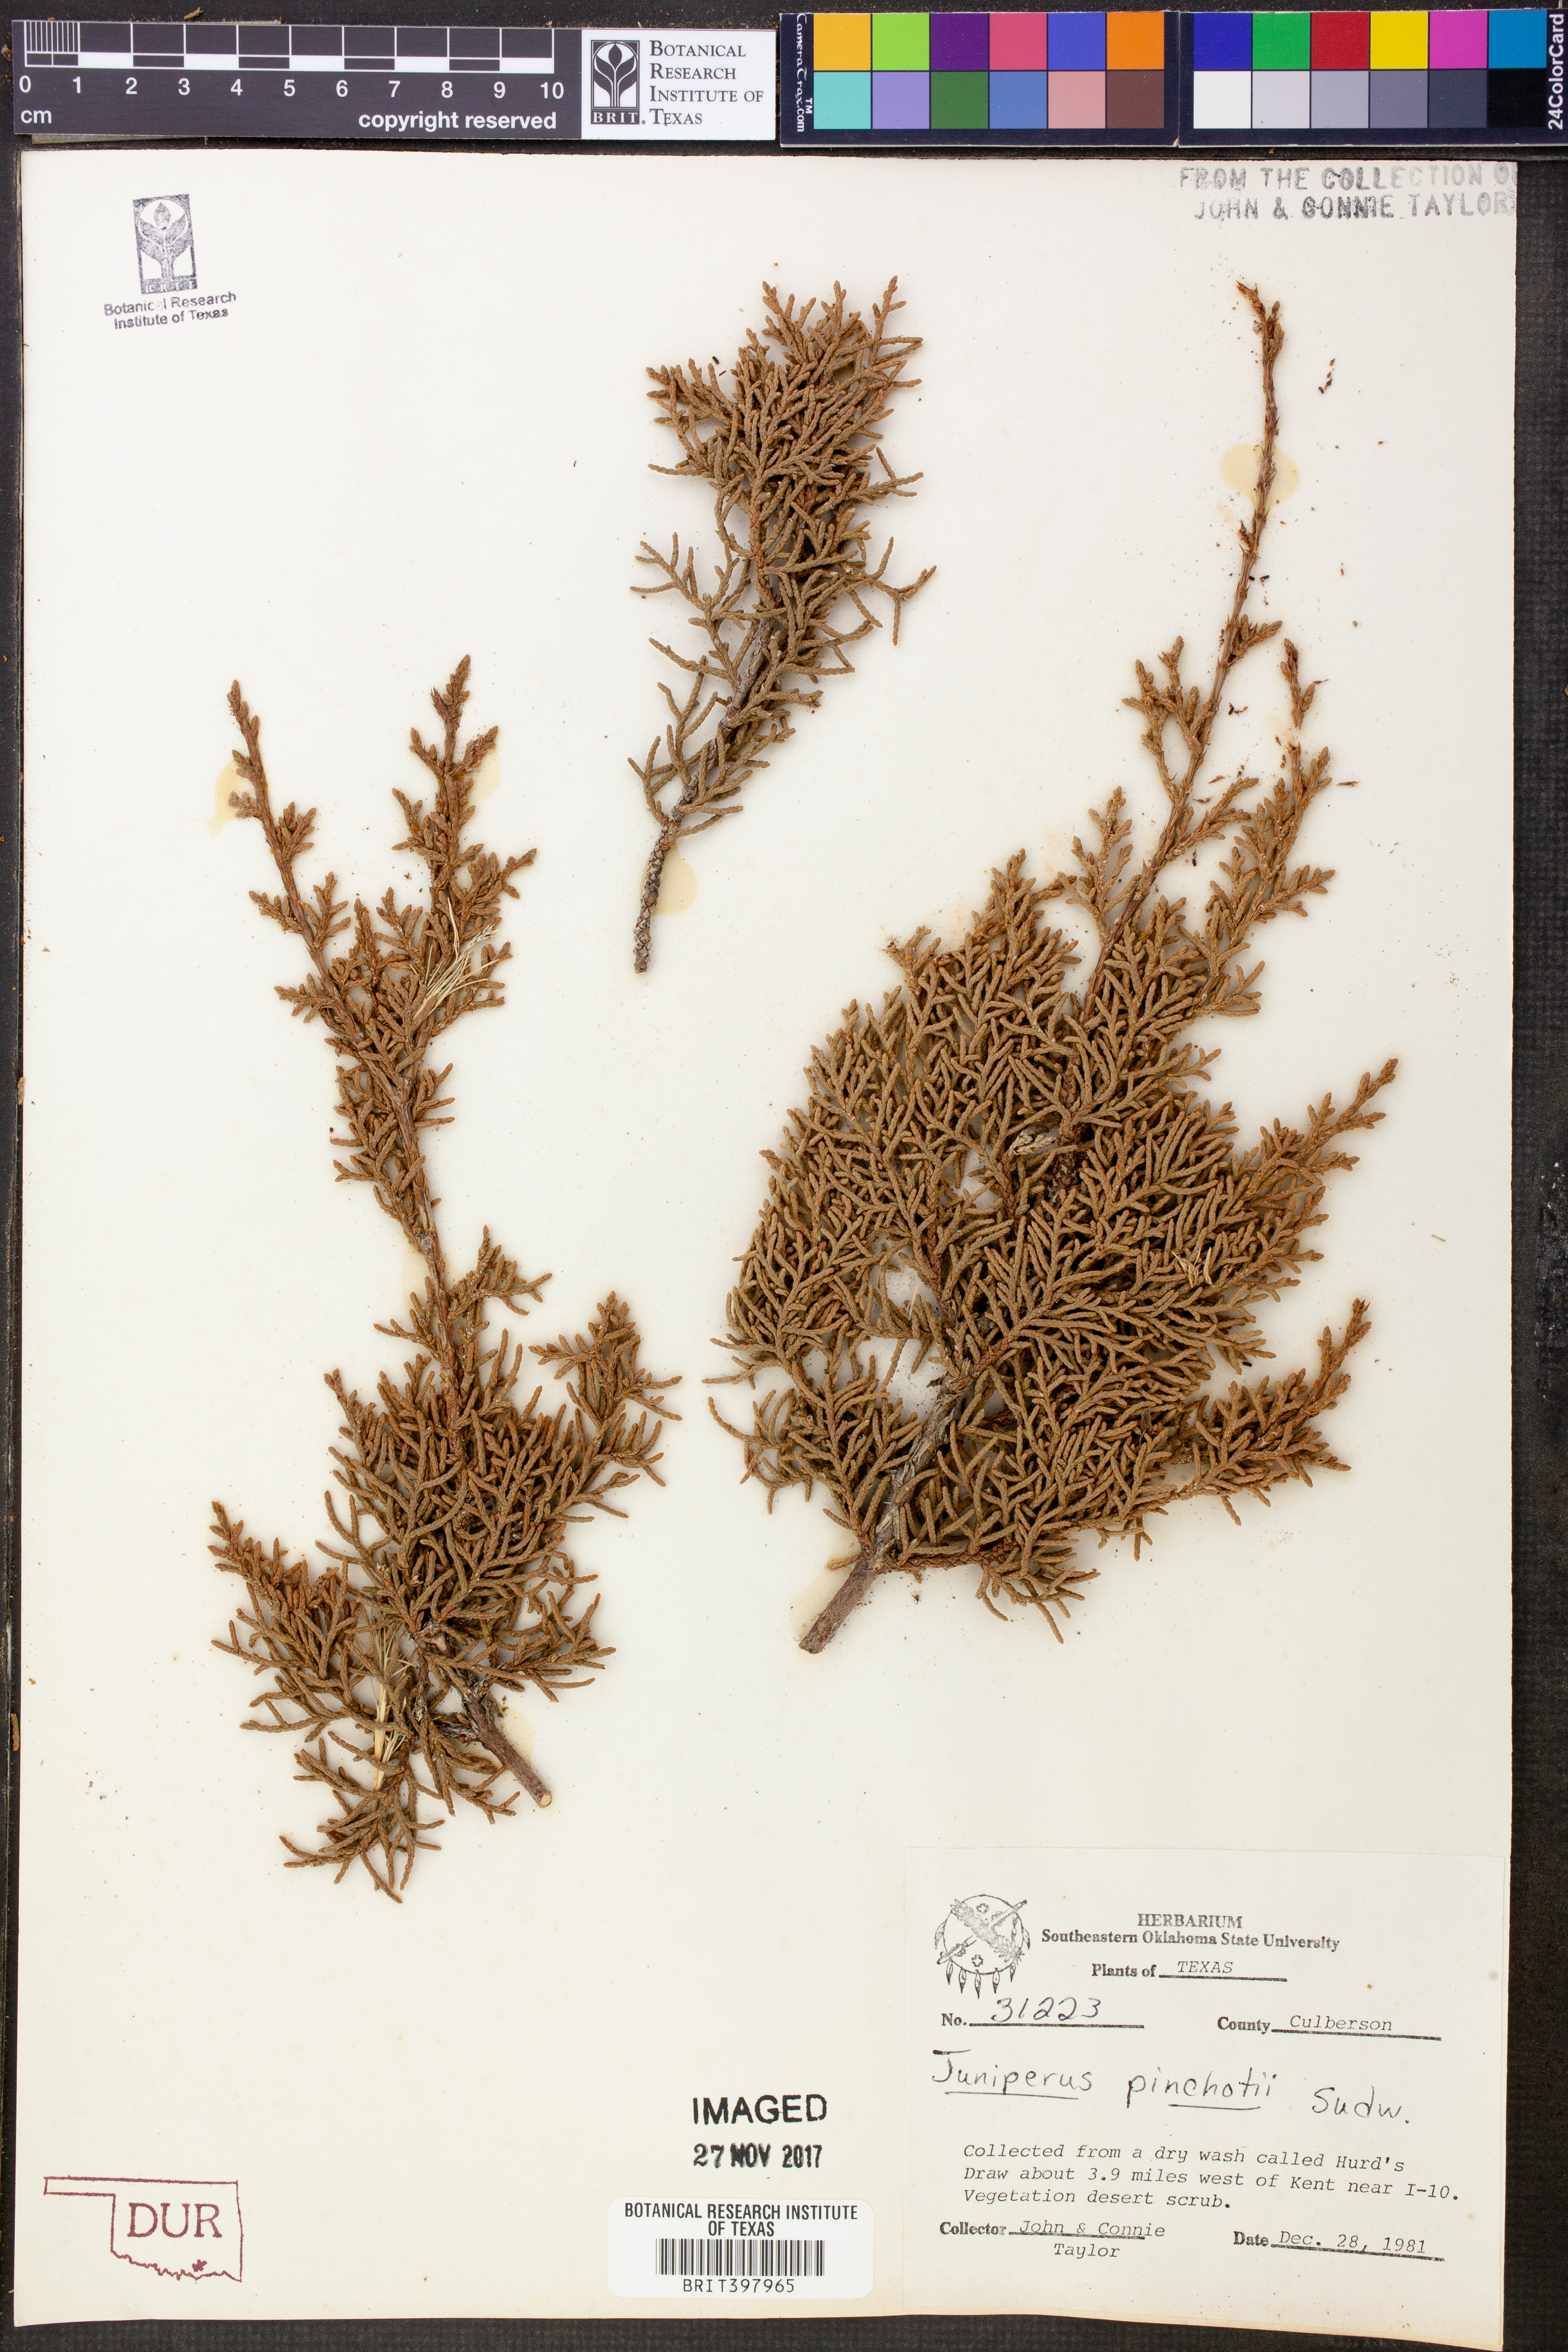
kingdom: Plantae
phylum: Tracheophyta
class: Pinopsida
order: Pinales
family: Cupressaceae
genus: Juniperus
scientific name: Juniperus pinchotii
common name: Pinchot juniper
